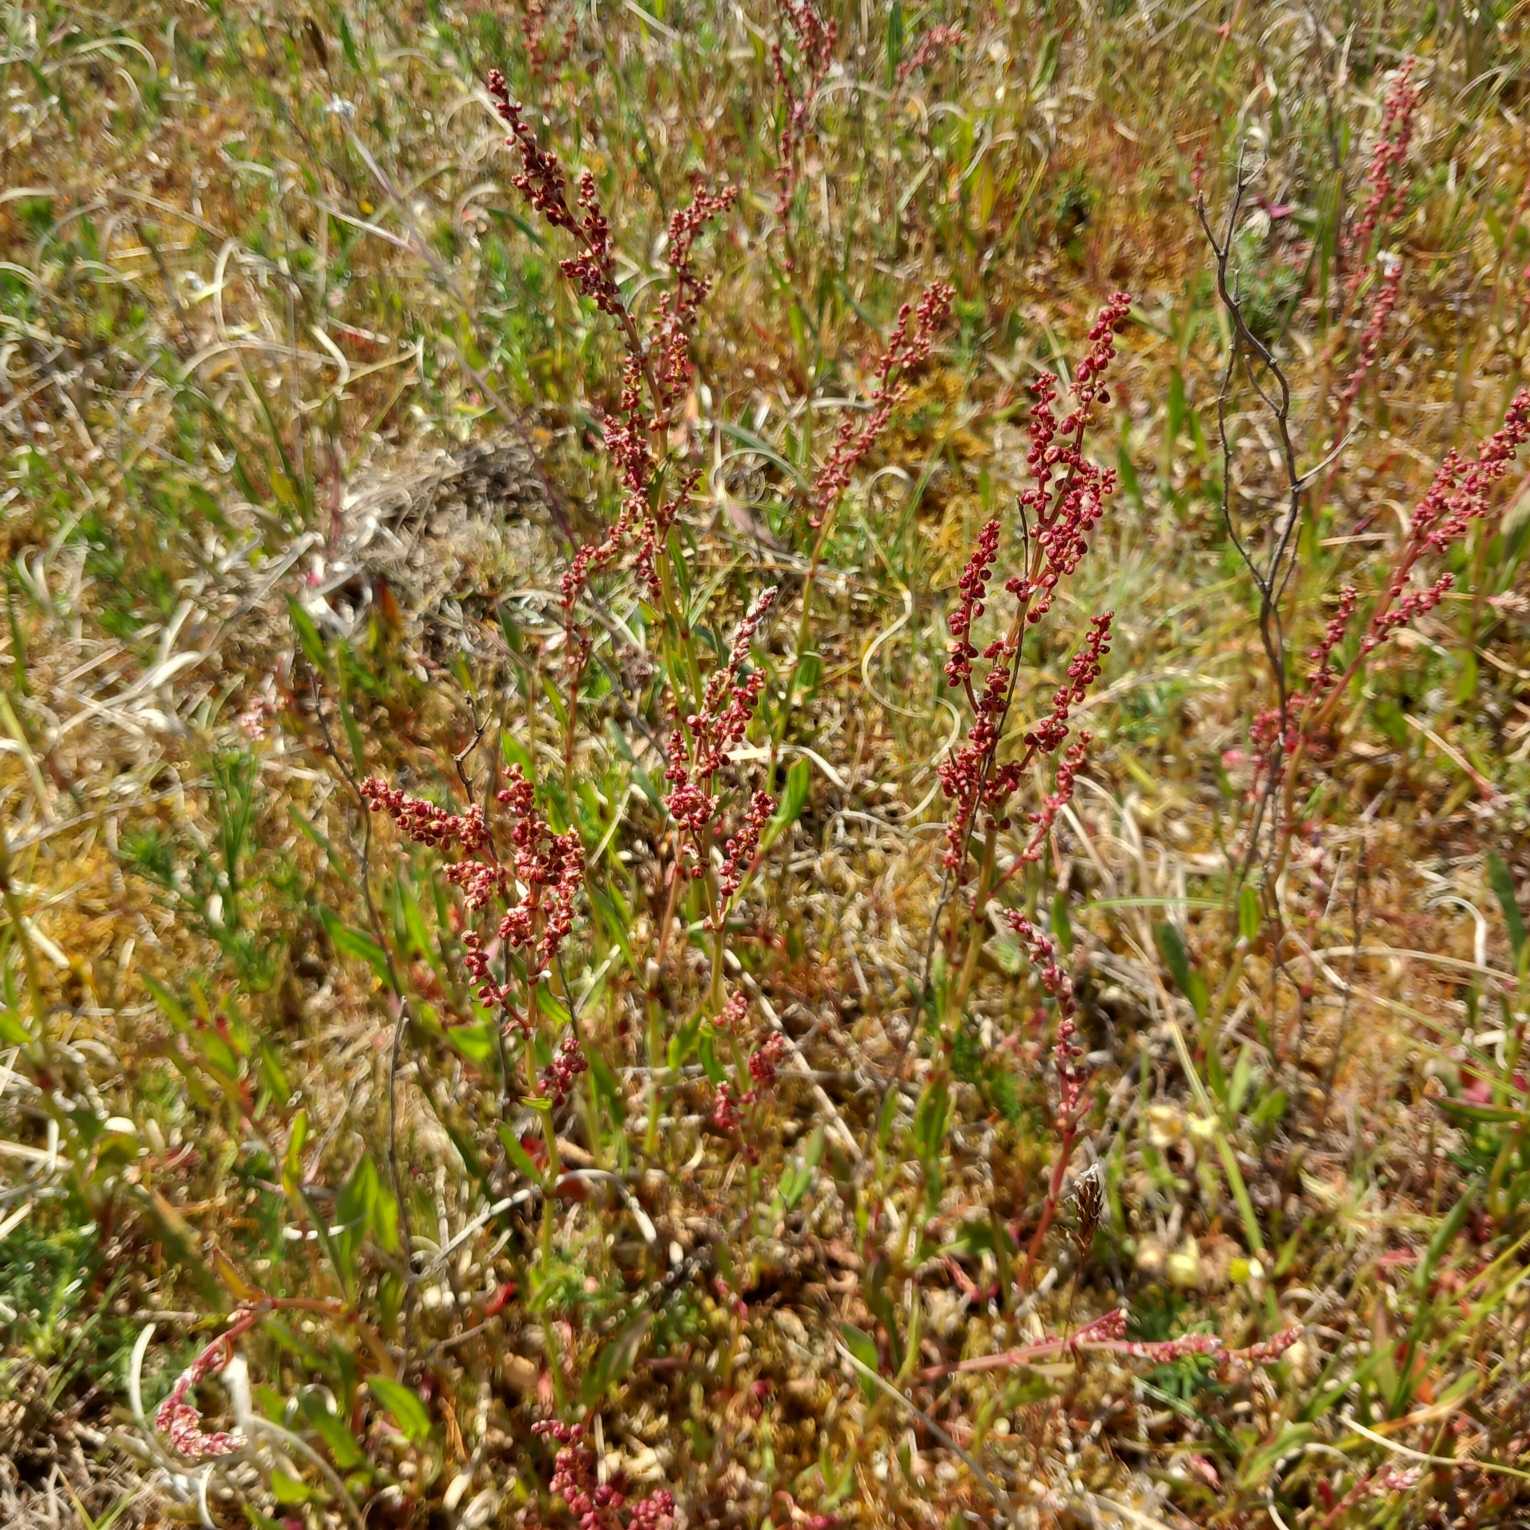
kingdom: Plantae
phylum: Tracheophyta
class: Magnoliopsida
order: Caryophyllales
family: Polygonaceae
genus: Rumex
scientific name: Rumex acetosella
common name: Rødknæ
